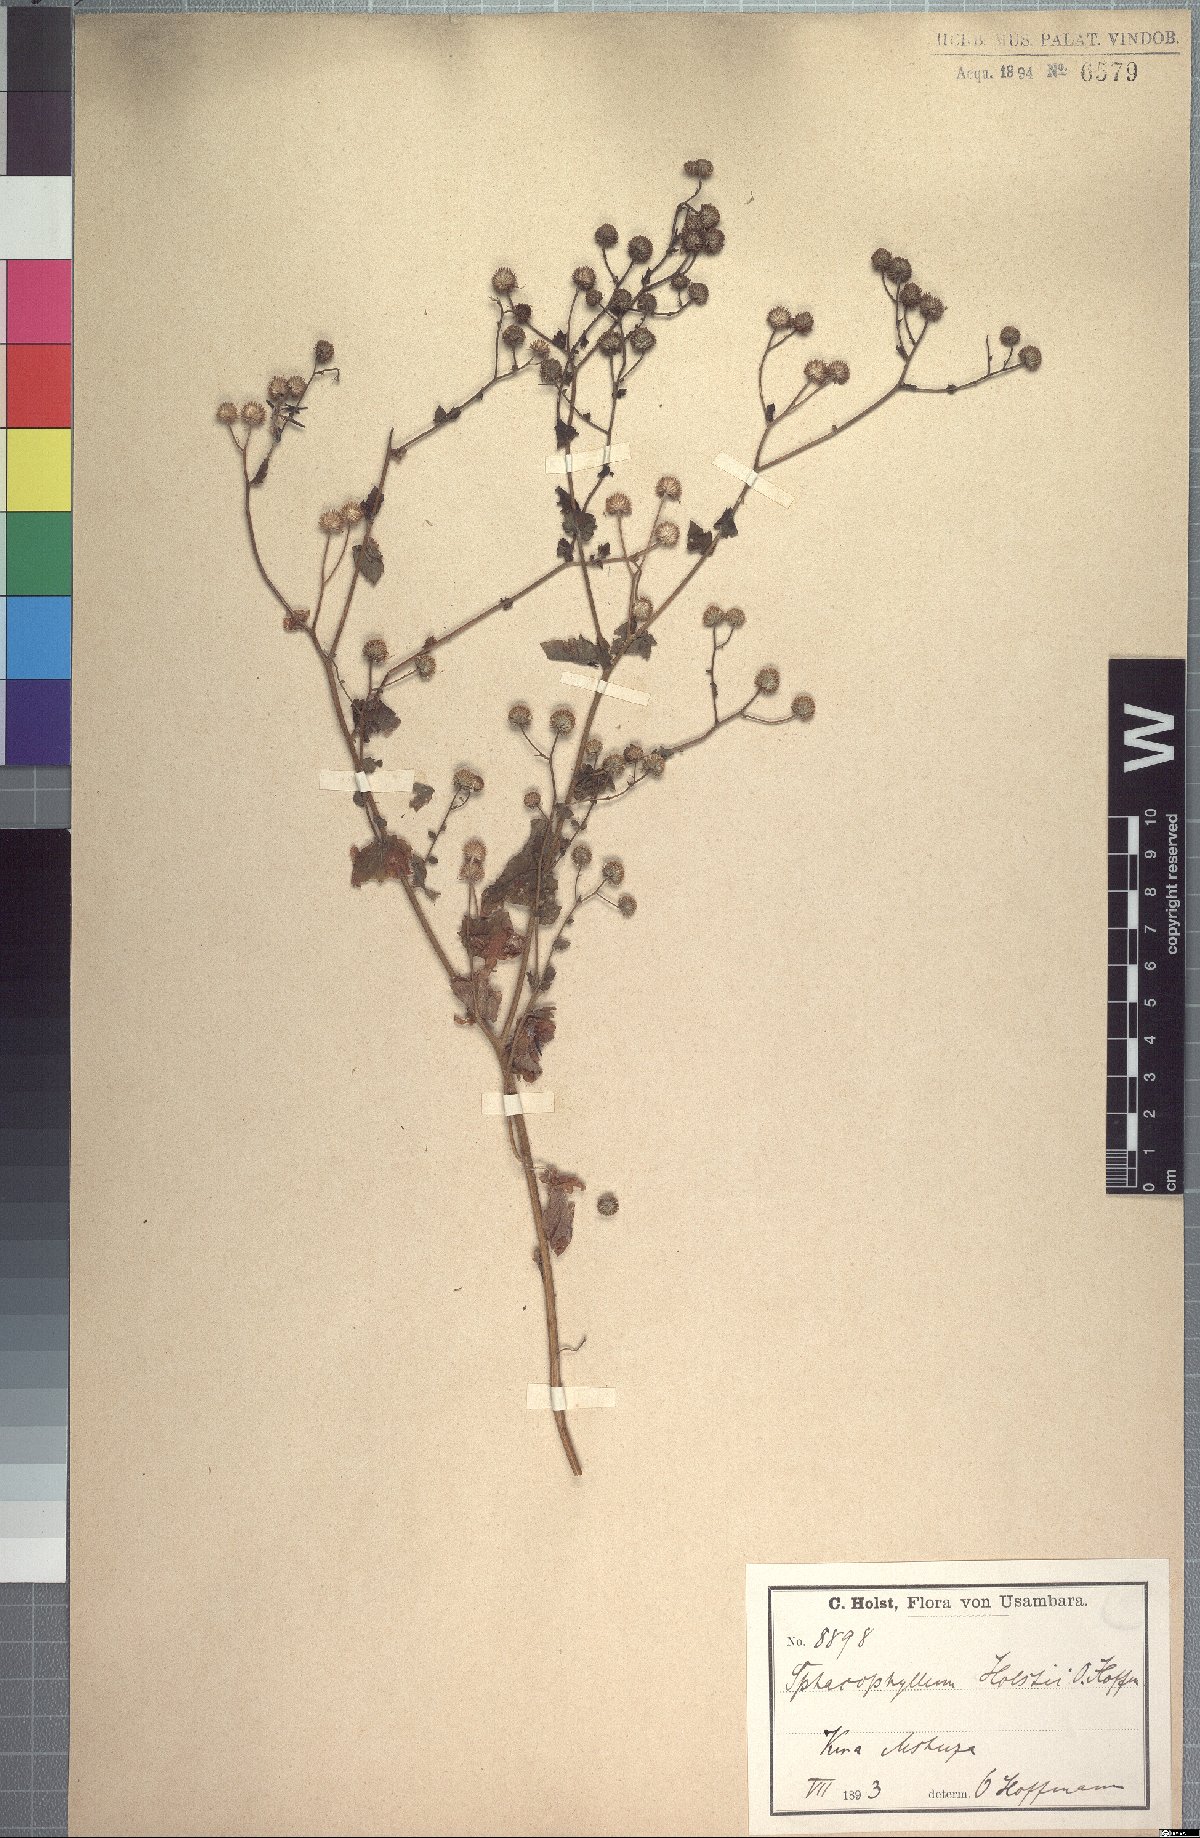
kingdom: Plantae
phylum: Tracheophyta
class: Magnoliopsida
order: Asterales
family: Asteraceae
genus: Anisopappus
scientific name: Anisopappus holstii
